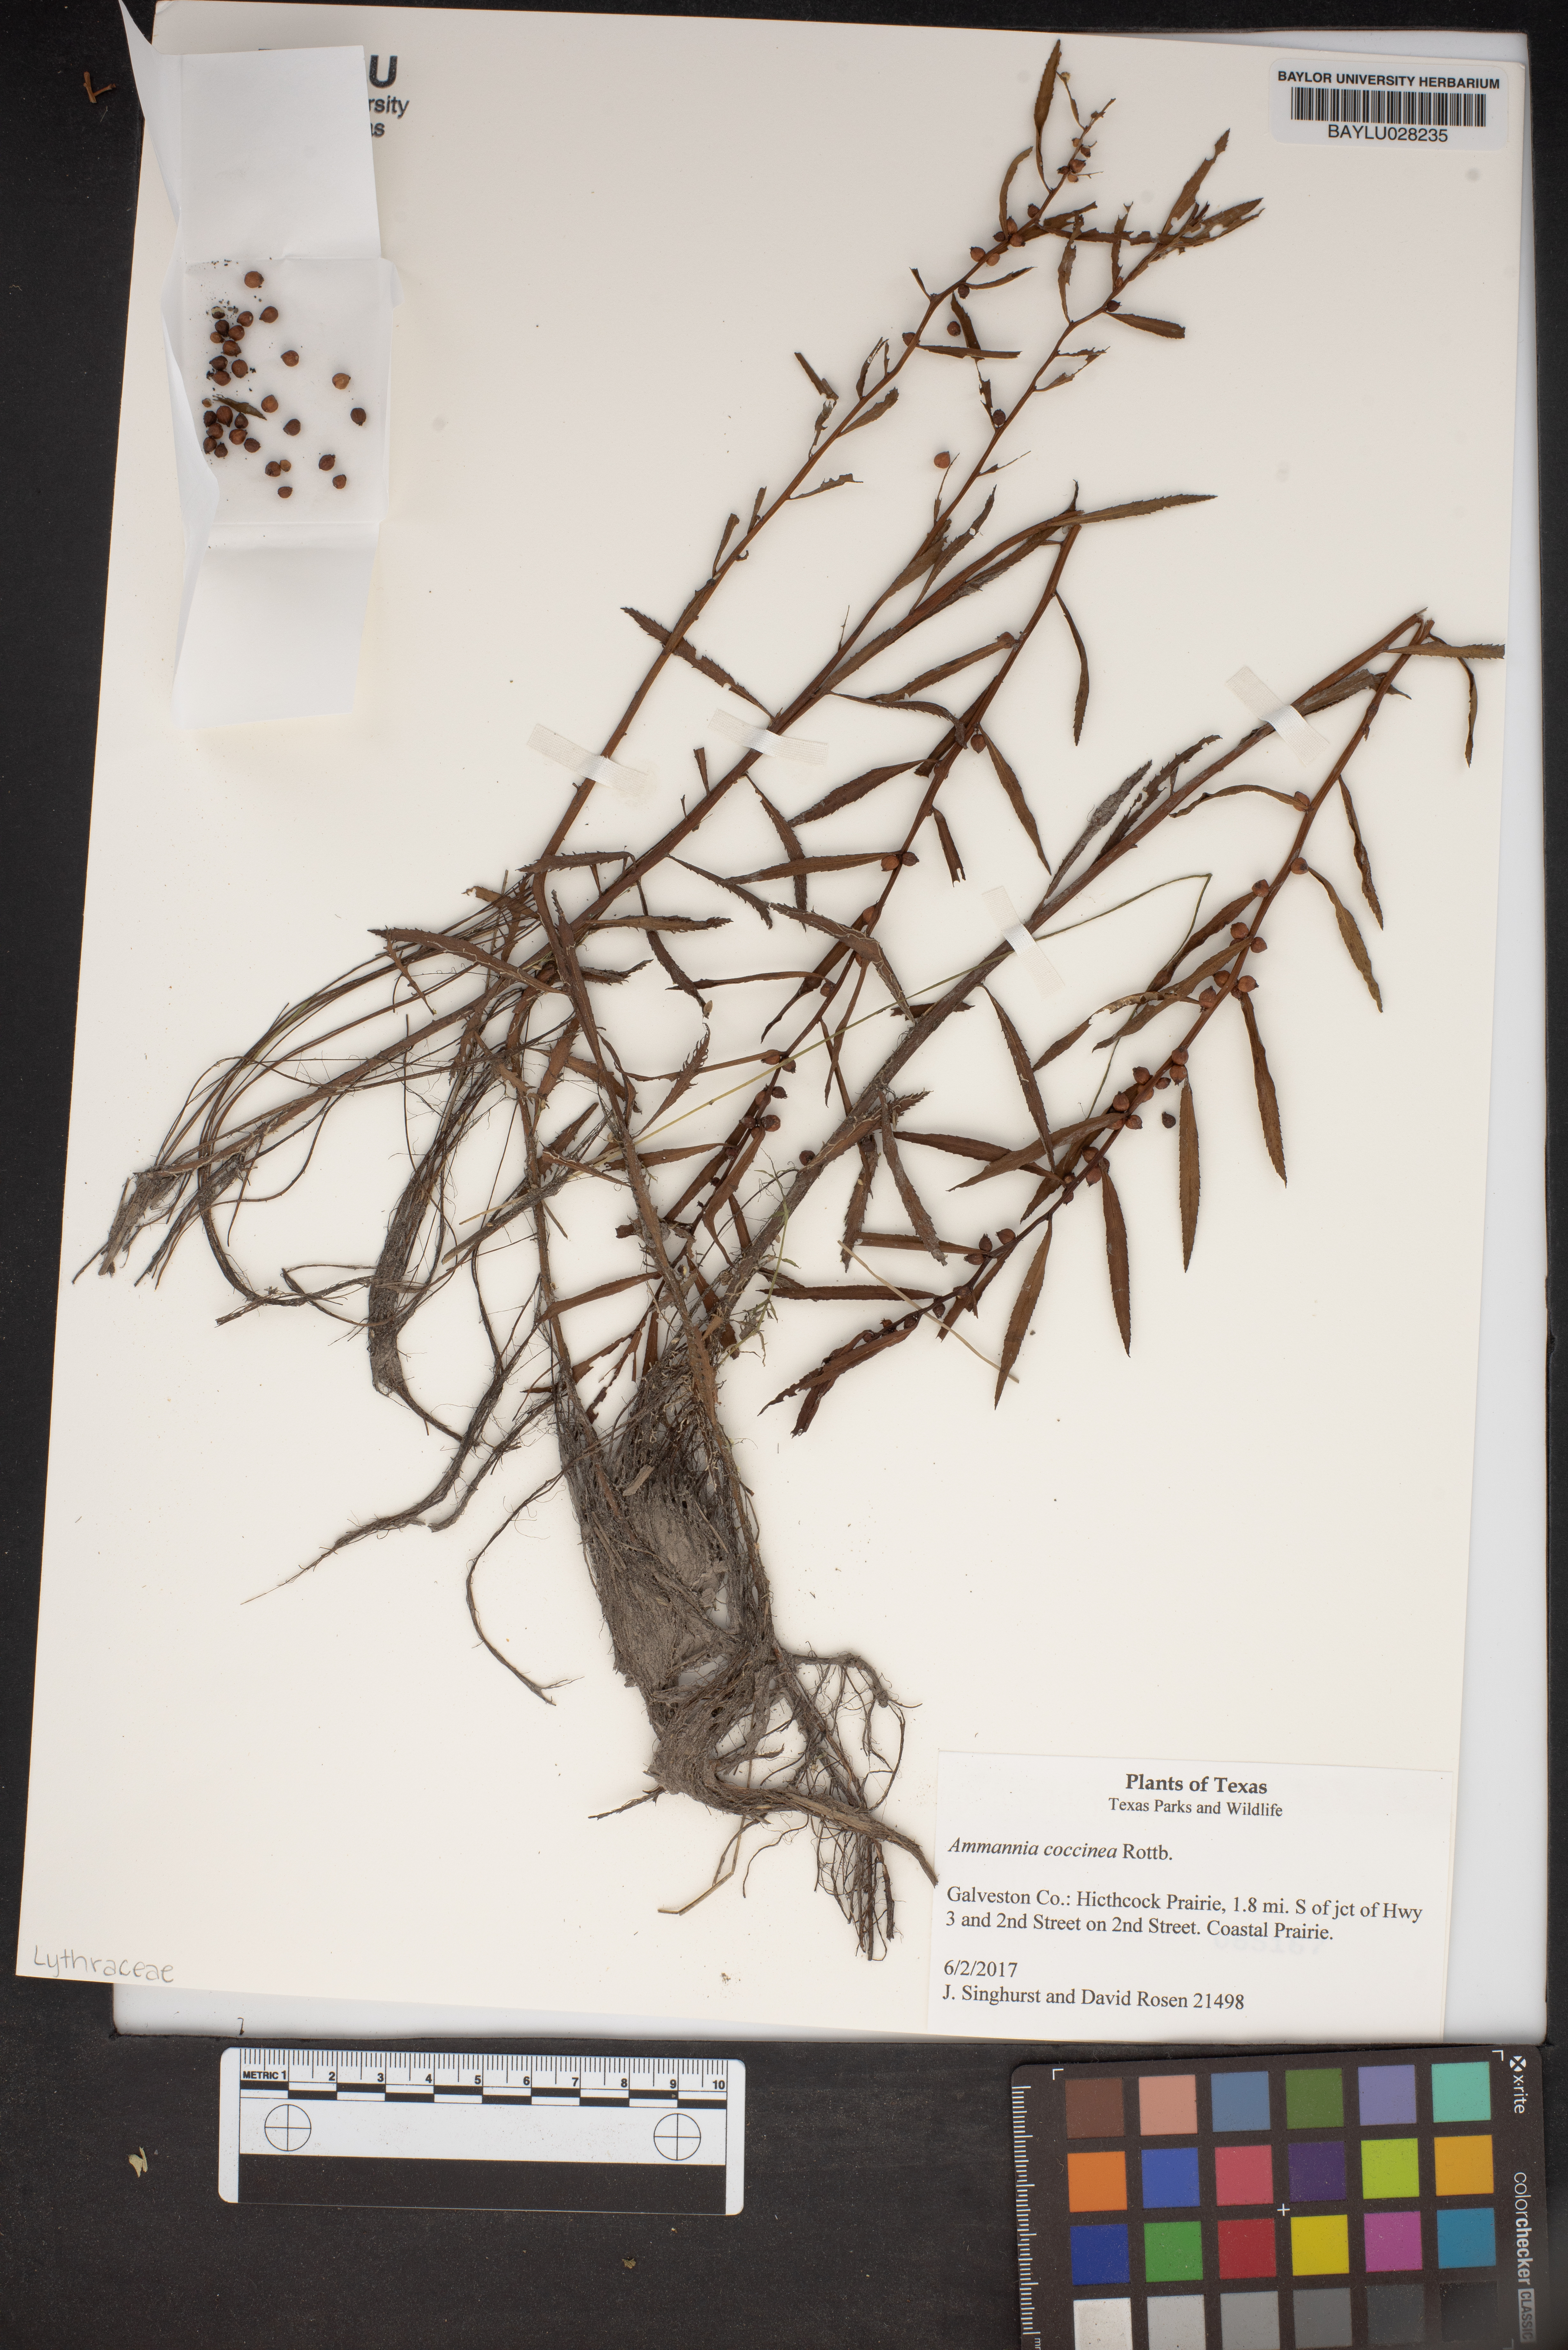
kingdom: Plantae
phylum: Tracheophyta
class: Magnoliopsida
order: Myrtales
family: Lythraceae
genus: Ammannia
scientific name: Ammannia coccinea
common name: Valley redstem
